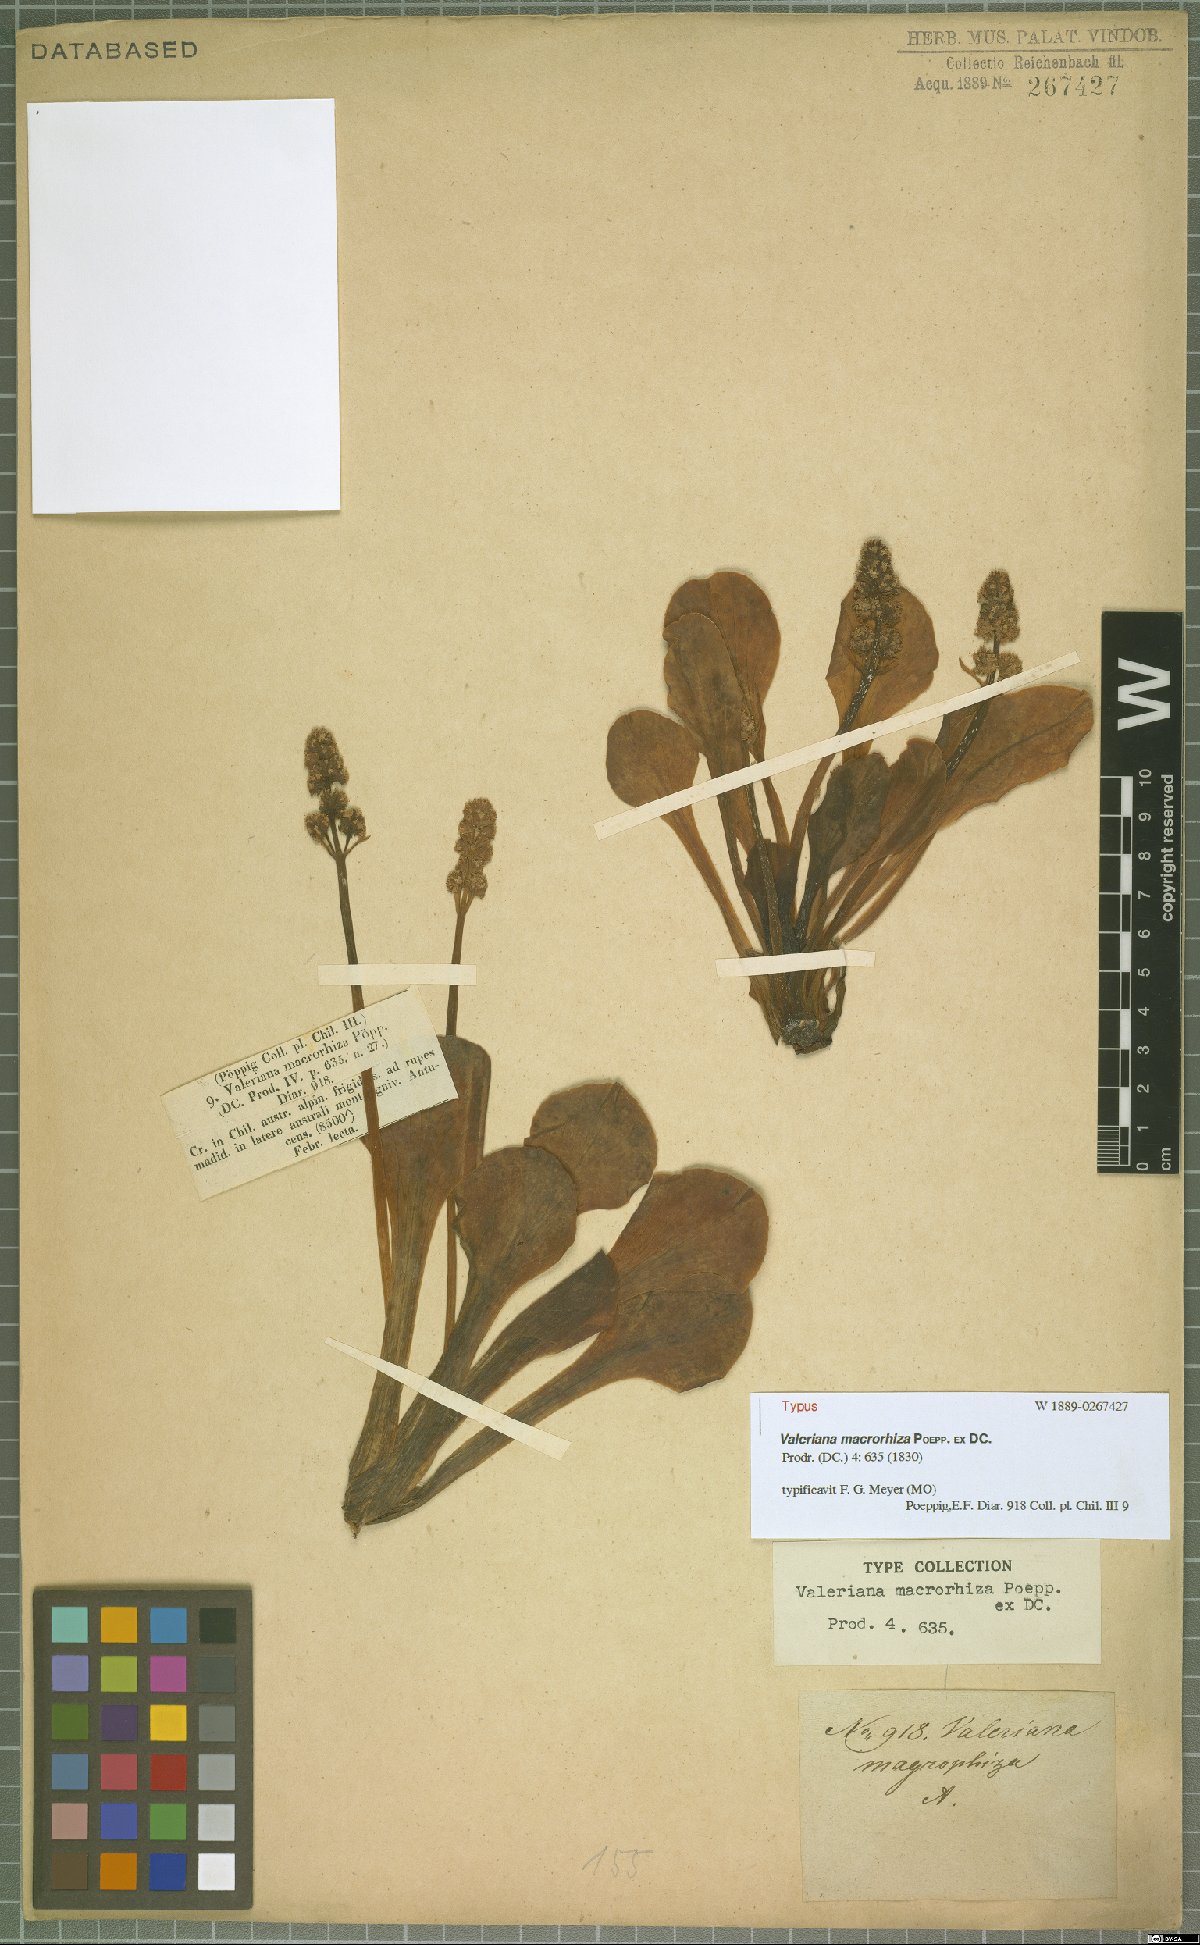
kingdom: Plantae
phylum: Tracheophyta
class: Magnoliopsida
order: Dipsacales
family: Caprifoliaceae
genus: Valeriana
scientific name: Valeriana macrorhiza
